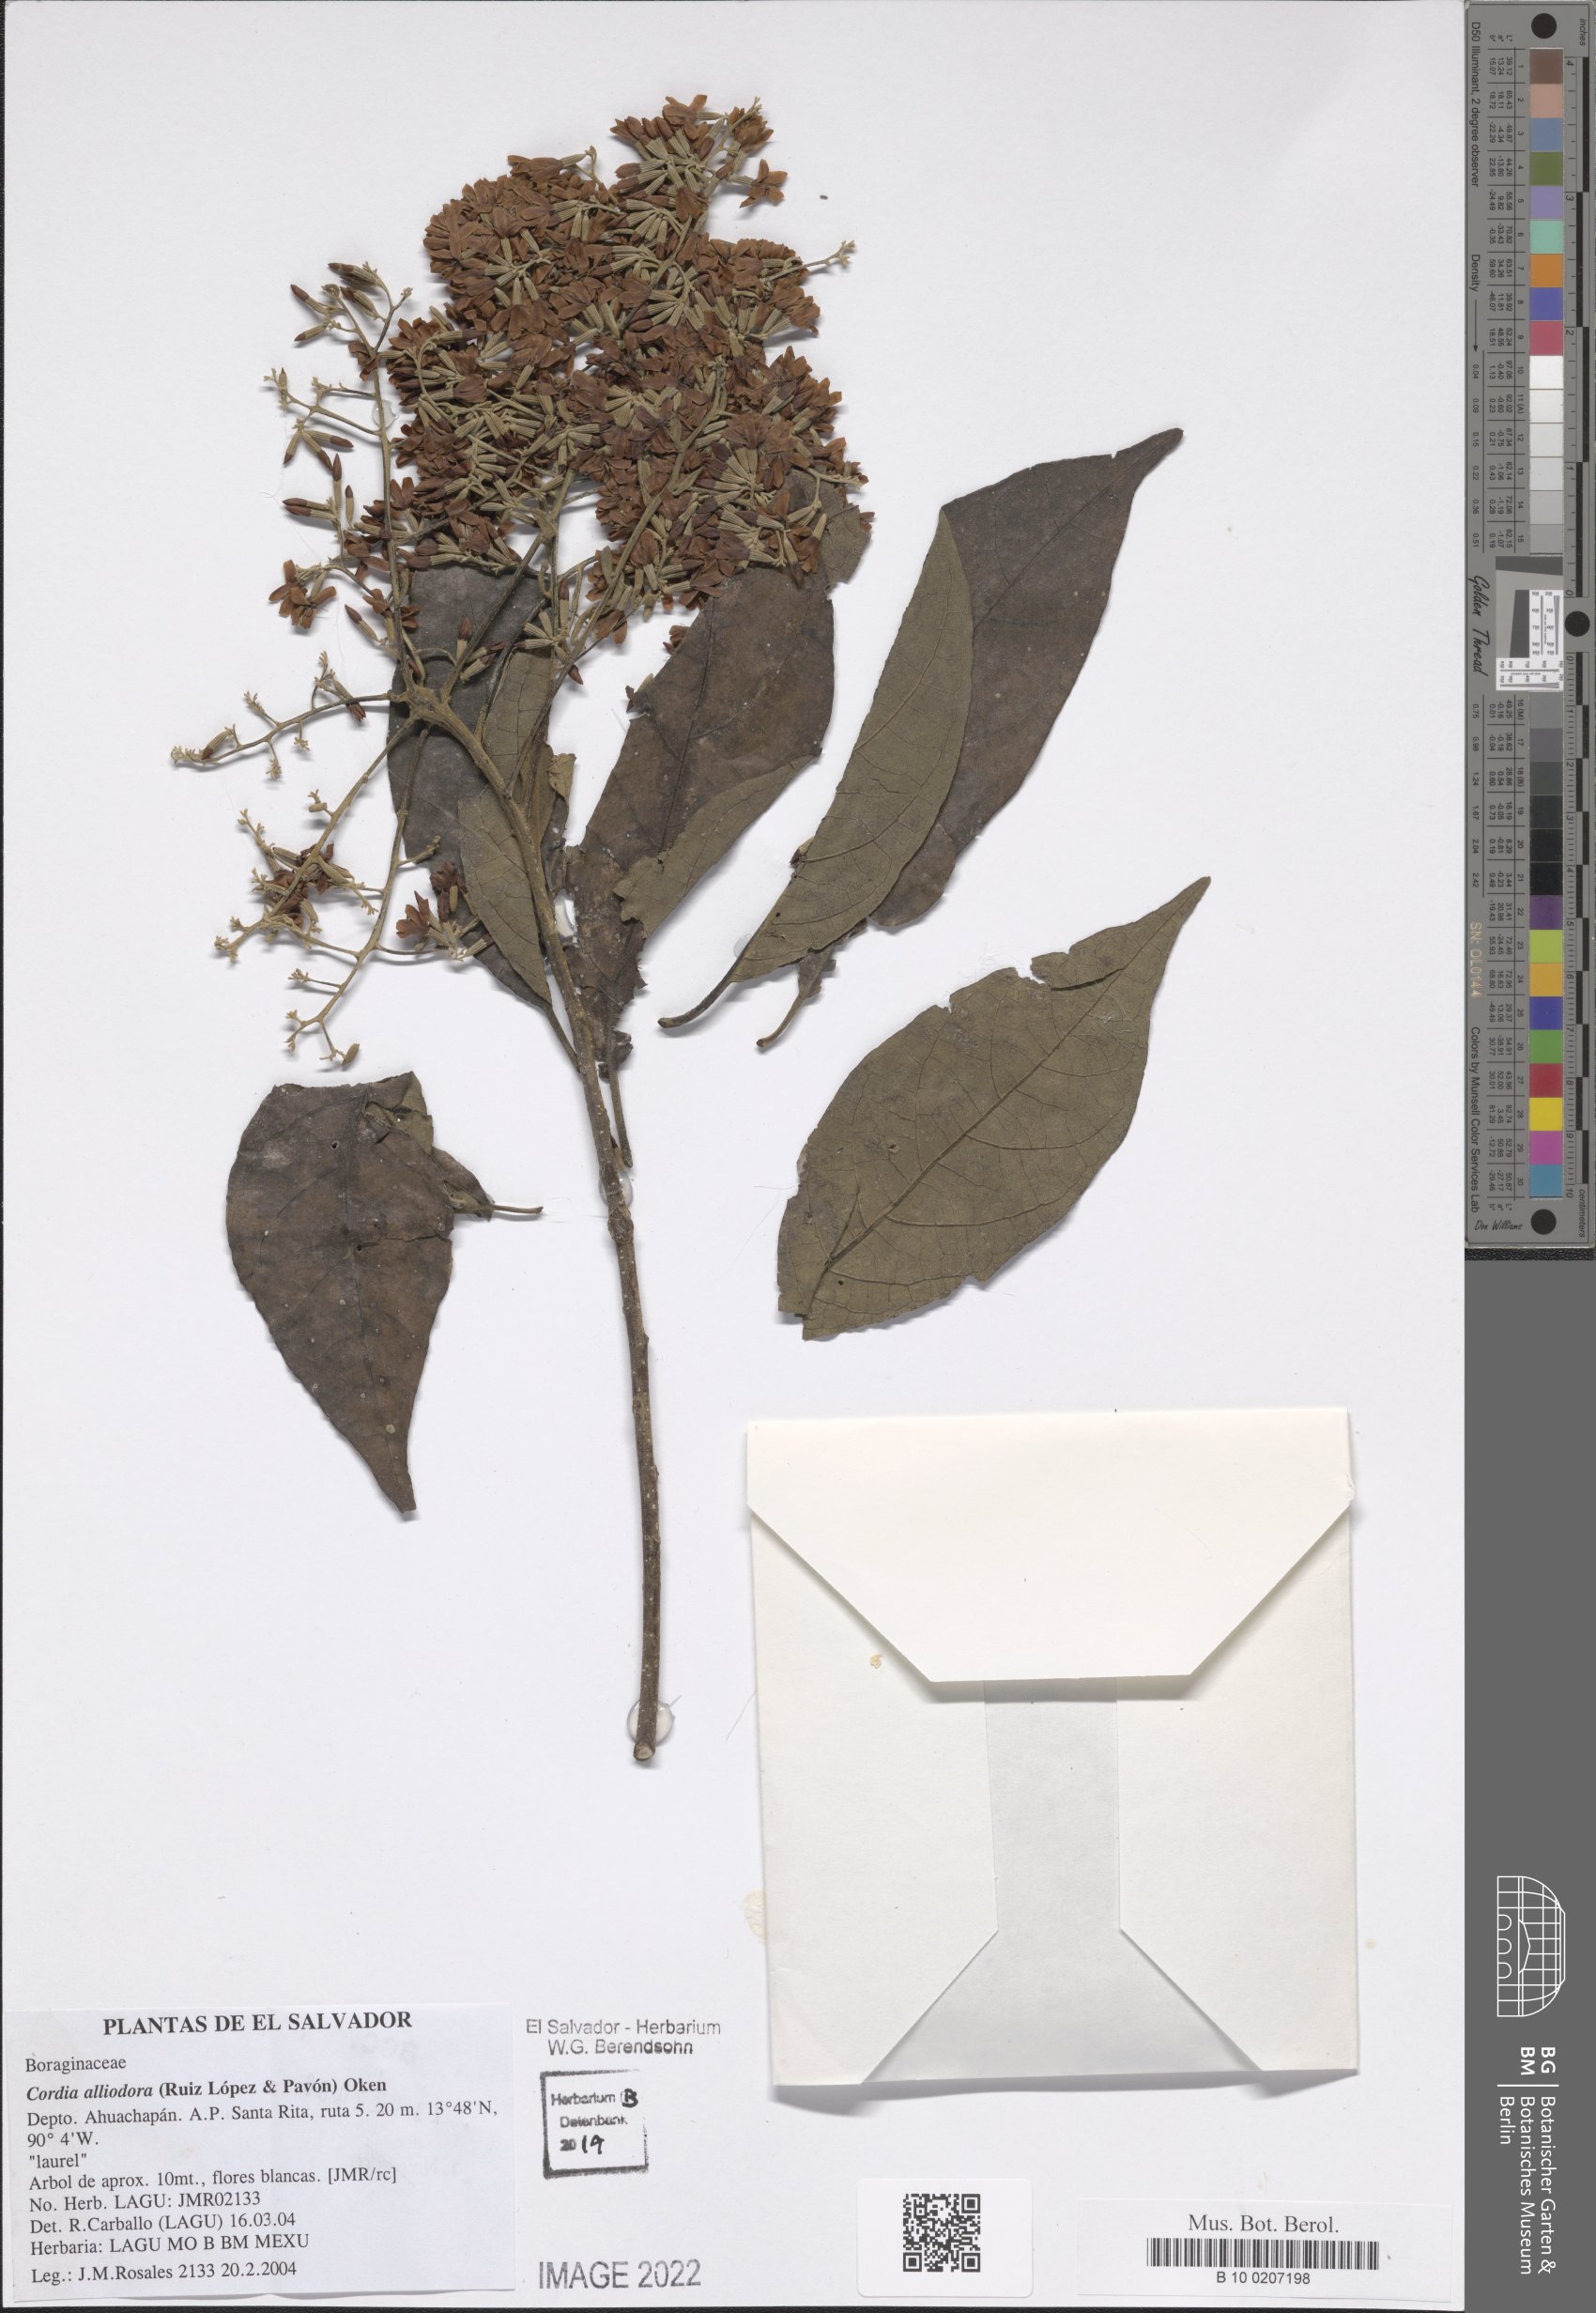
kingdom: Plantae
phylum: Tracheophyta
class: Magnoliopsida
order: Boraginales
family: Cordiaceae
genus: Cordia
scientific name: Cordia alliodora
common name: Spanish elm
